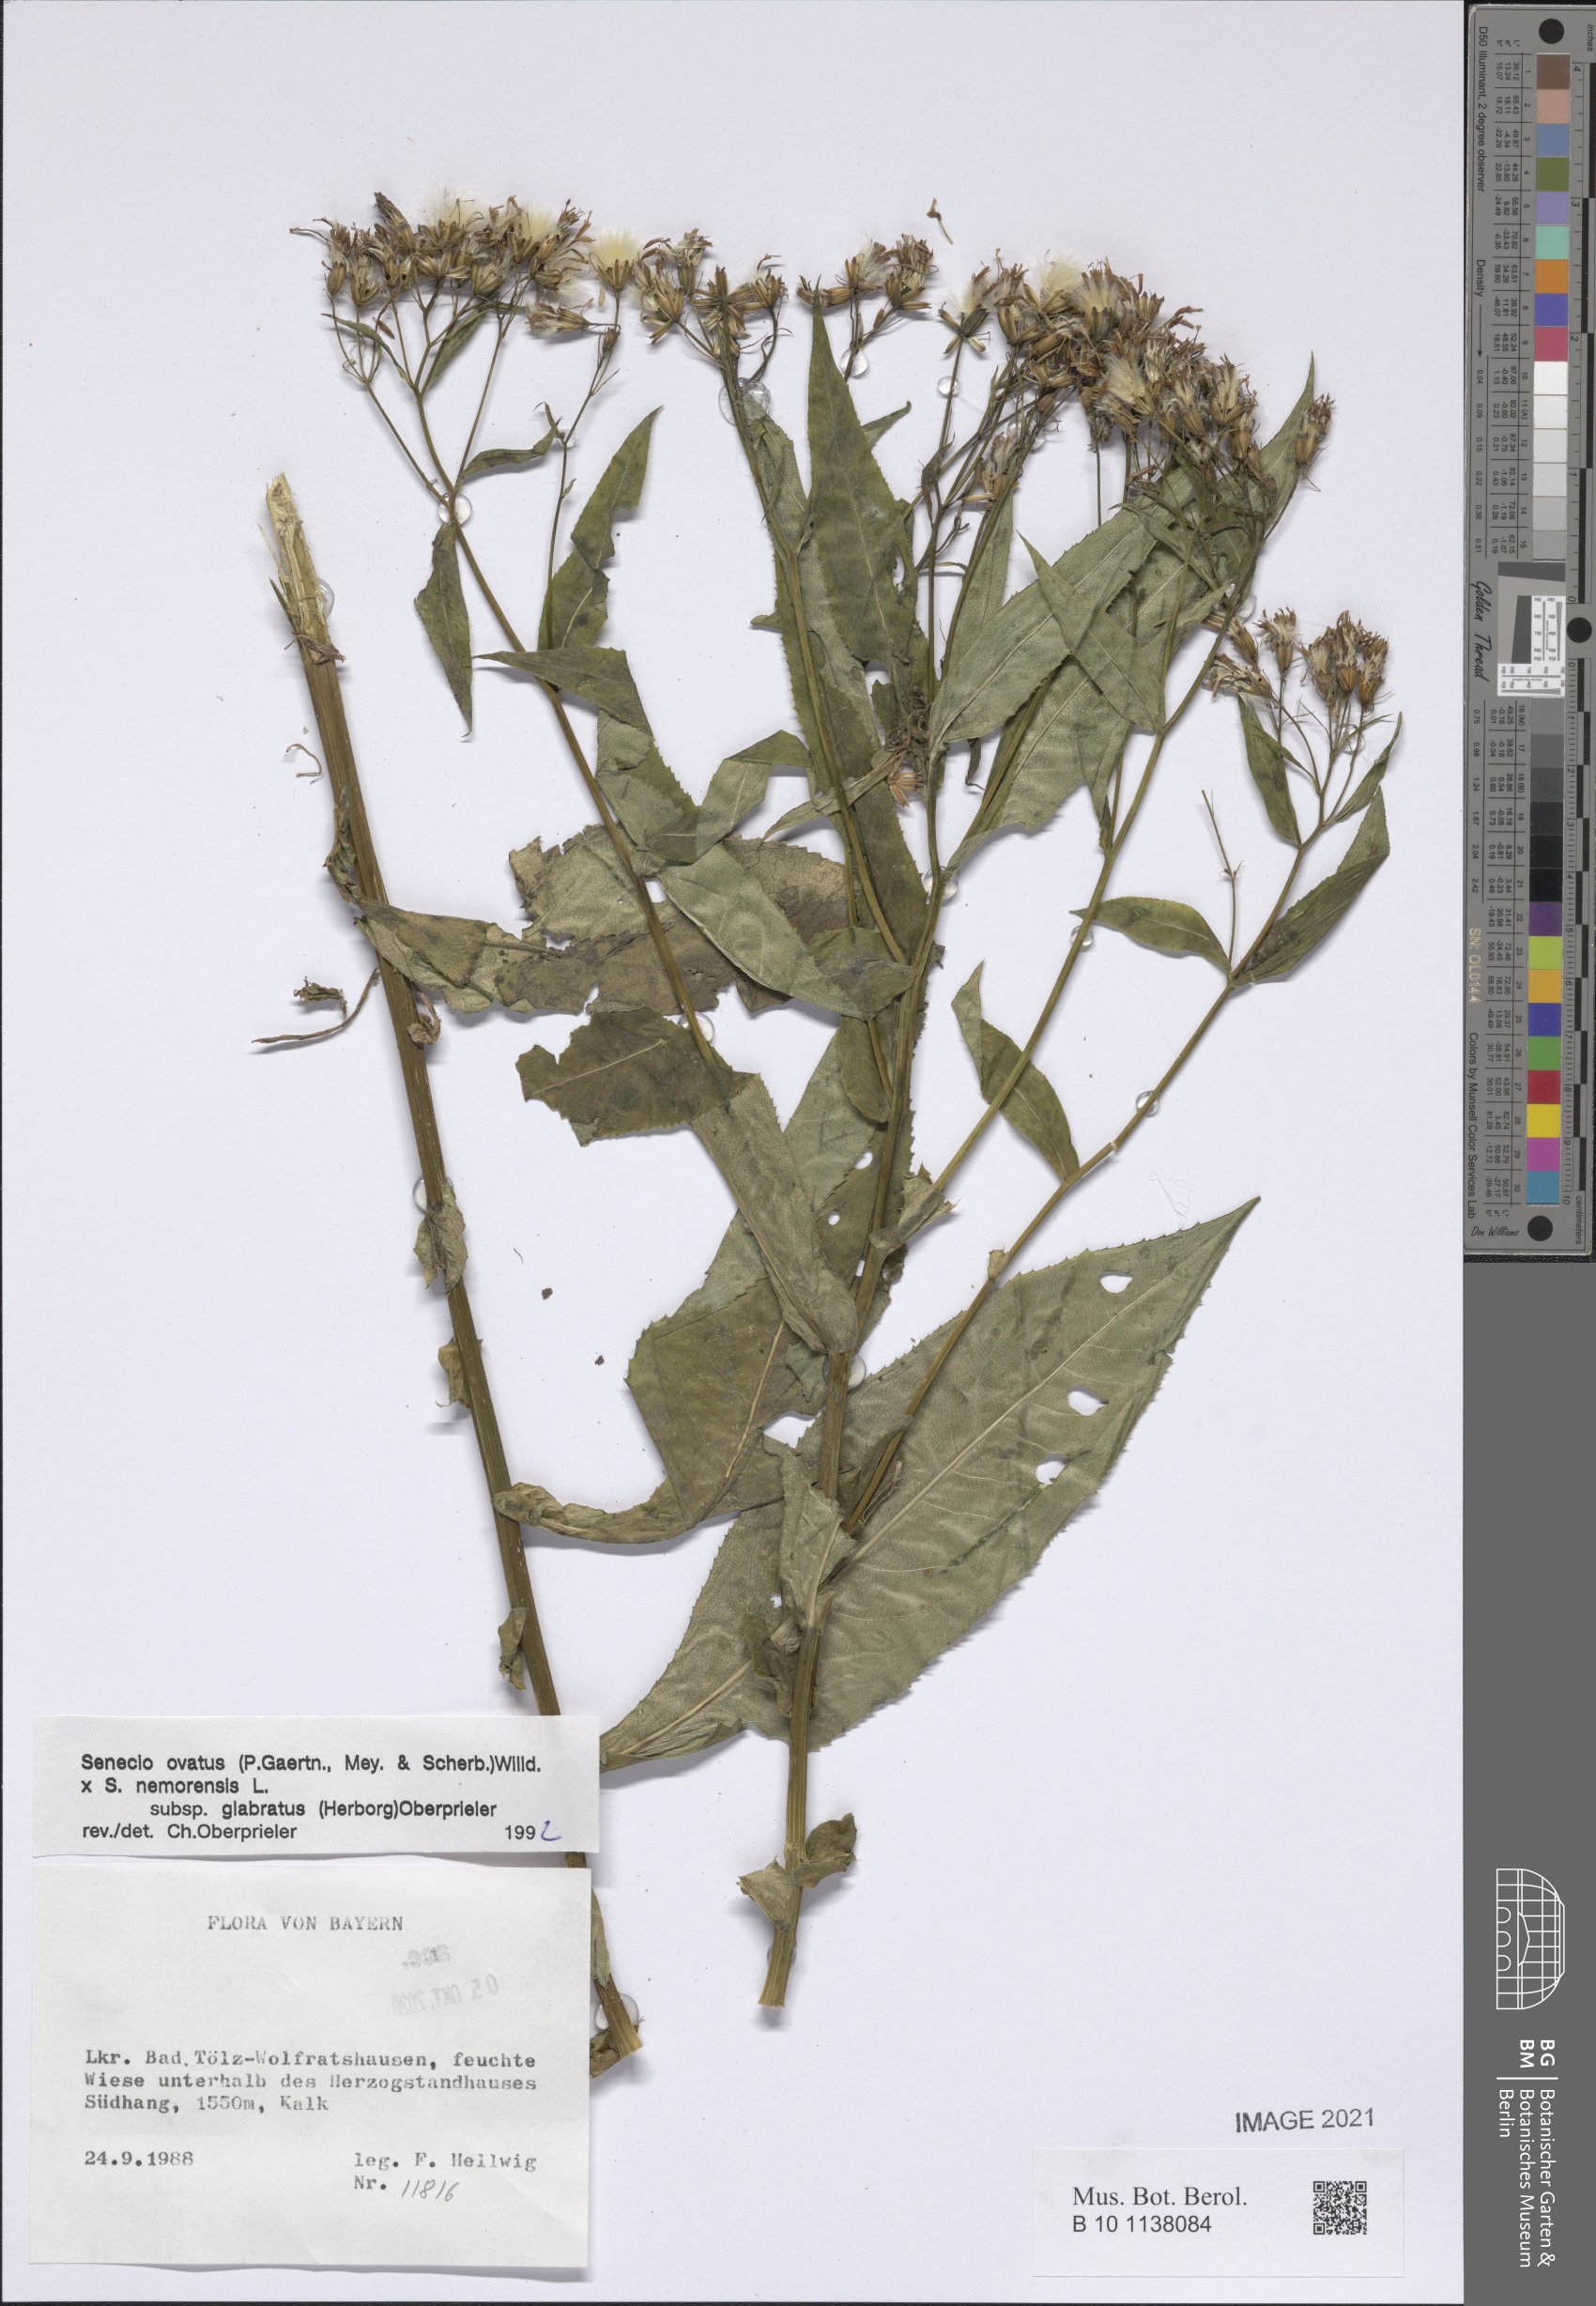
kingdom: Plantae
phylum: Tracheophyta
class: Magnoliopsida
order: Asterales
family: Asteraceae
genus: Senecio
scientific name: Senecio ovatus
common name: Wood ragwort
